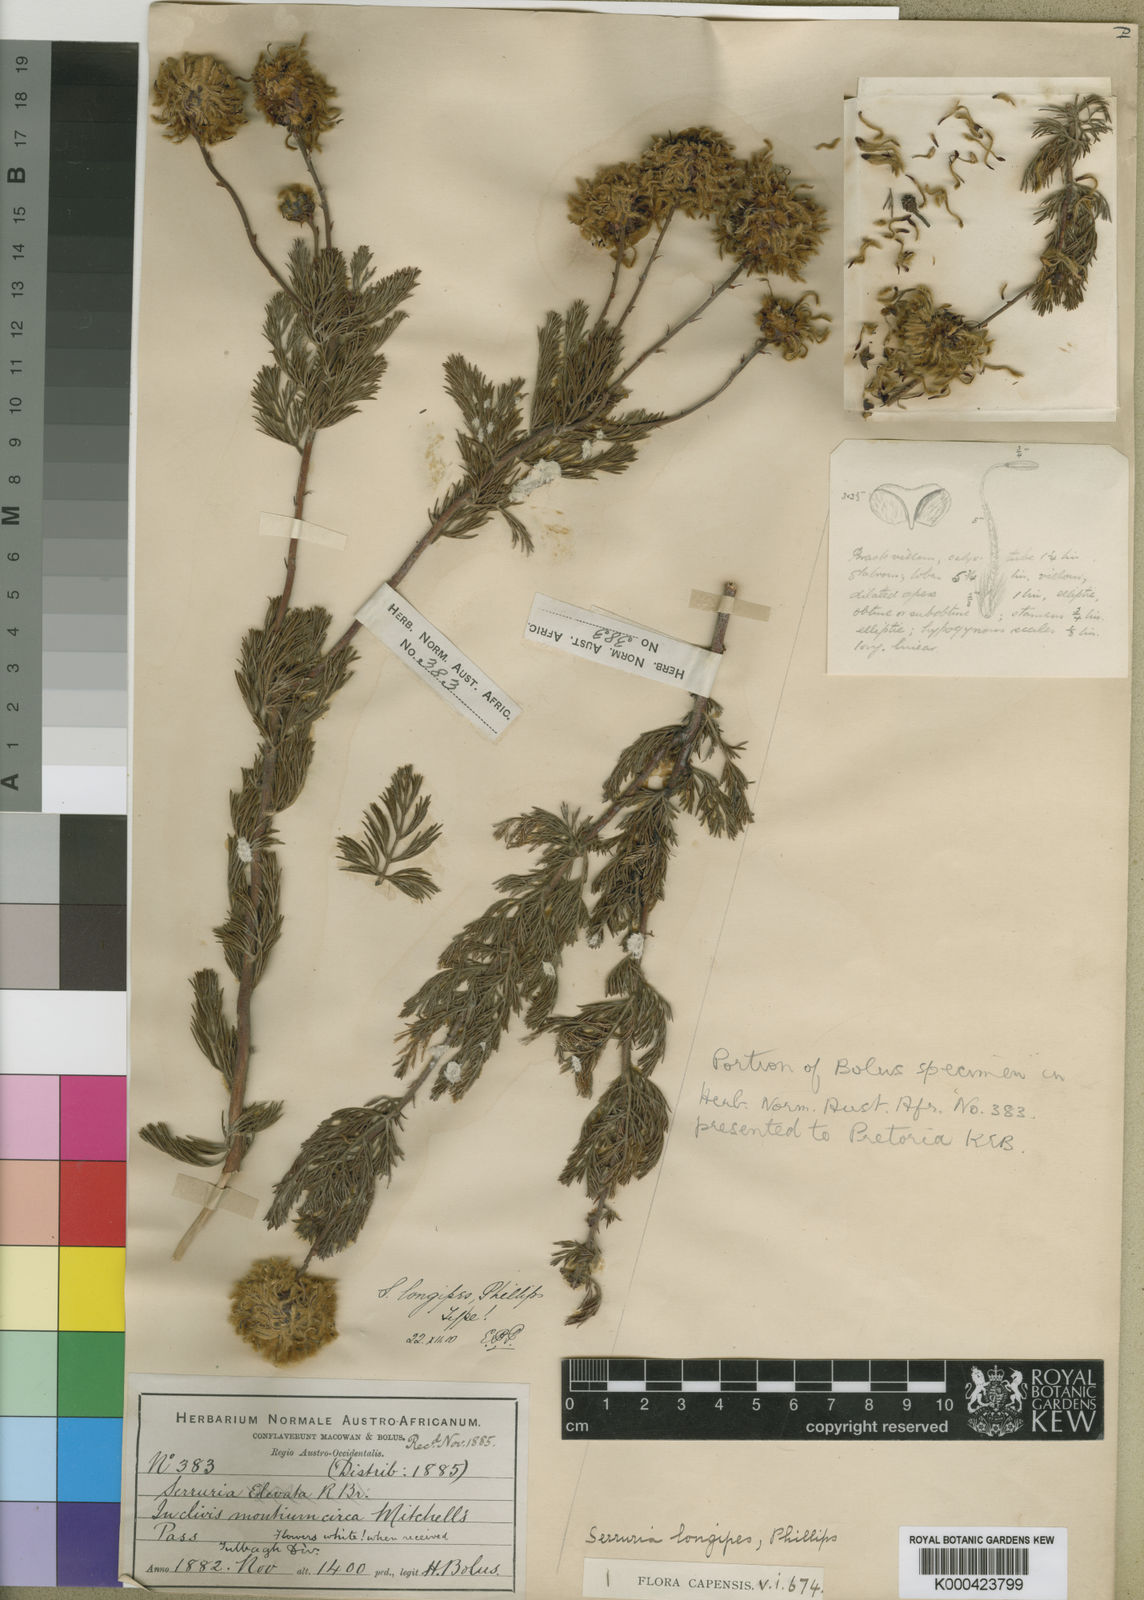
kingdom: Plantae
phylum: Tracheophyta
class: Magnoliopsida
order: Proteales
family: Proteaceae
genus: Serruria
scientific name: Serruria pedunculata
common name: Fan-leaf spiderhead
